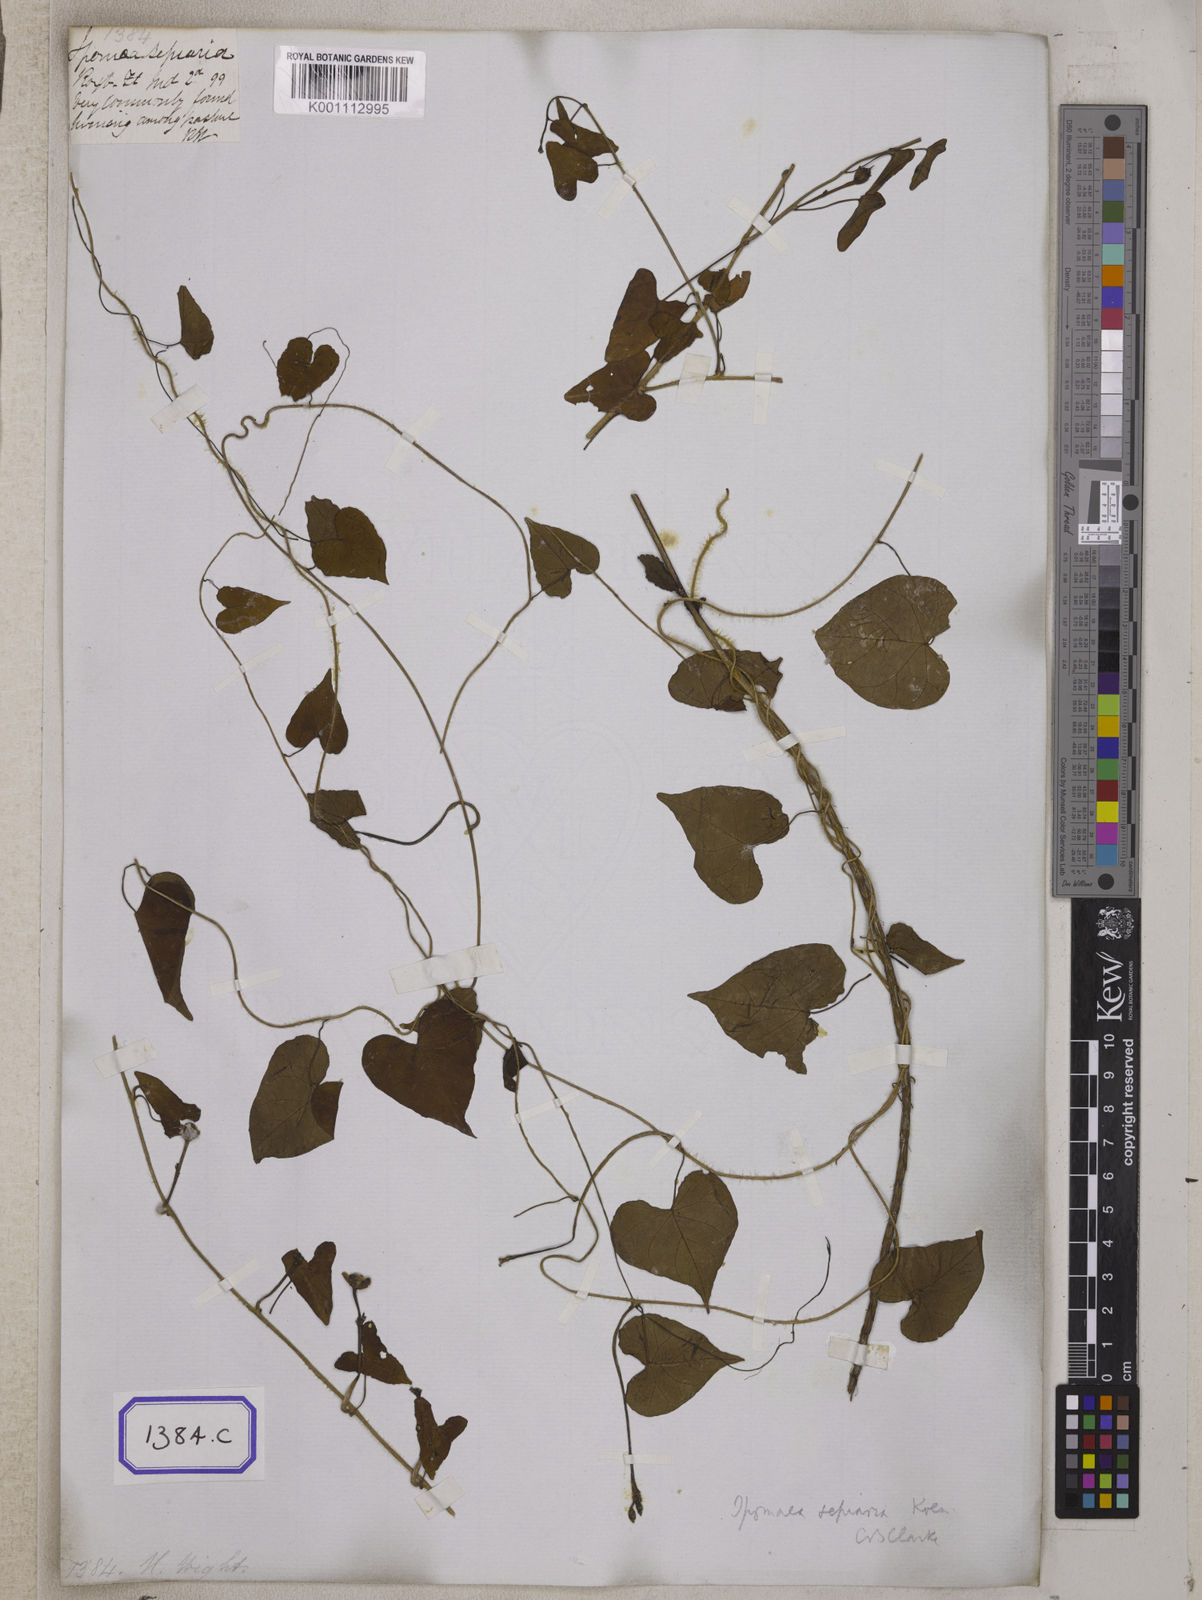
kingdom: Plantae
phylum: Tracheophyta
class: Magnoliopsida
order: Solanales
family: Convolvulaceae
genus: Ipomoea
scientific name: Ipomoea sagittifolia
